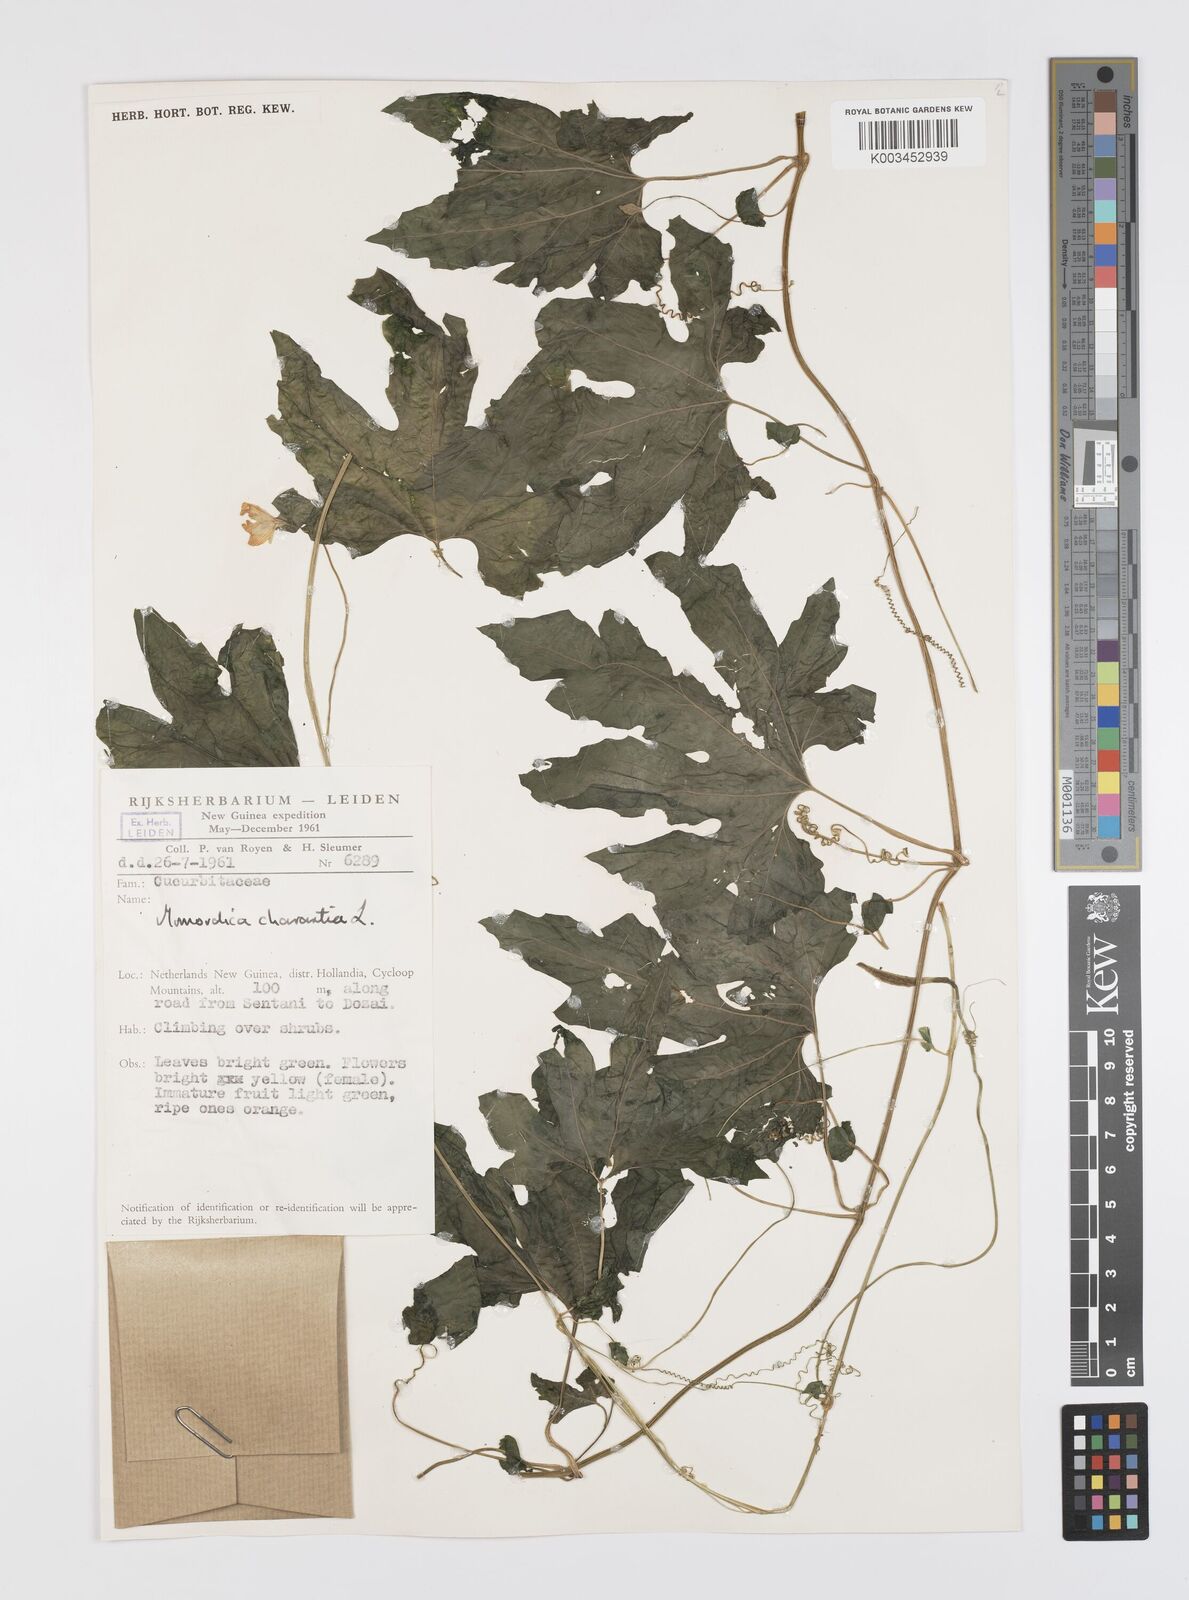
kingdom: Plantae
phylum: Tracheophyta
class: Magnoliopsida
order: Cucurbitales
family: Cucurbitaceae
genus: Momordica
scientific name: Momordica charantia
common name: Balsampear
